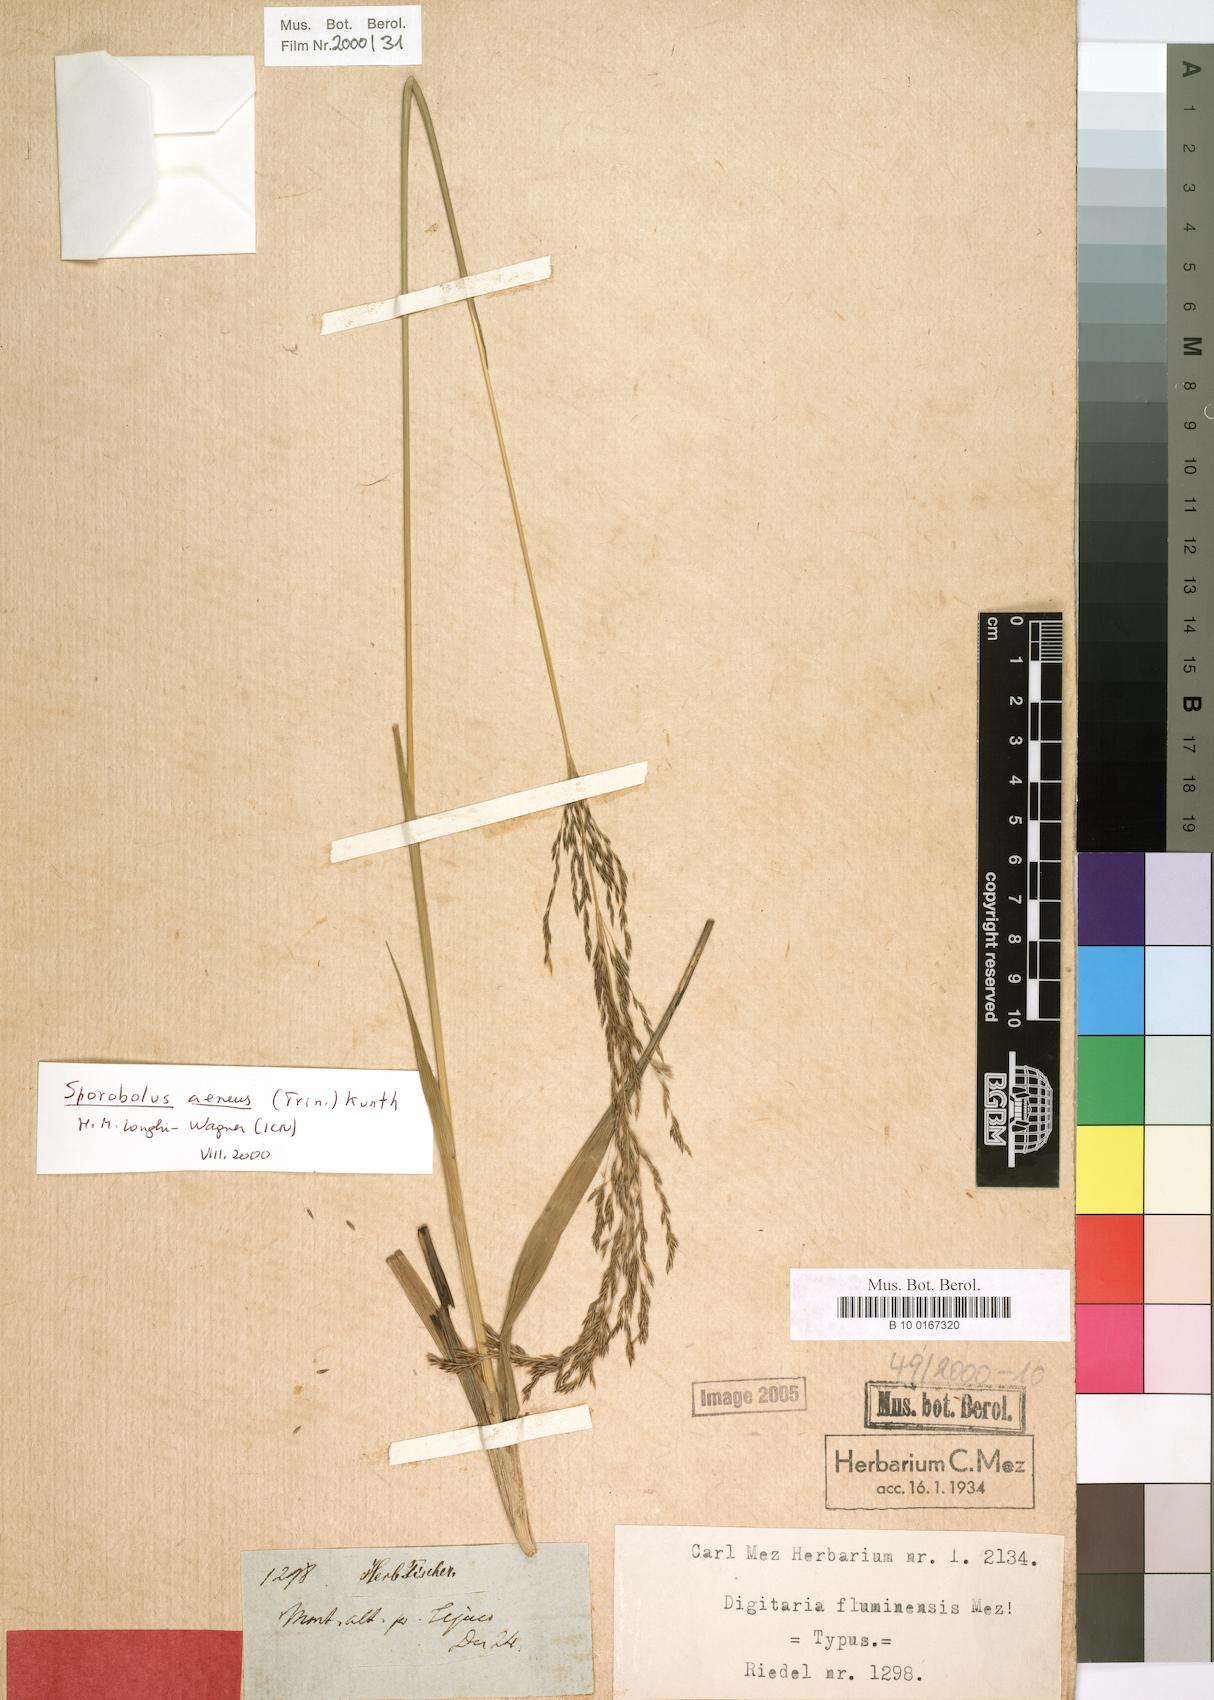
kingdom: Plantae
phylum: Tracheophyta
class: Liliopsida
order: Poales
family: Poaceae
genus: Digitaria
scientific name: Digitaria fluminensis
